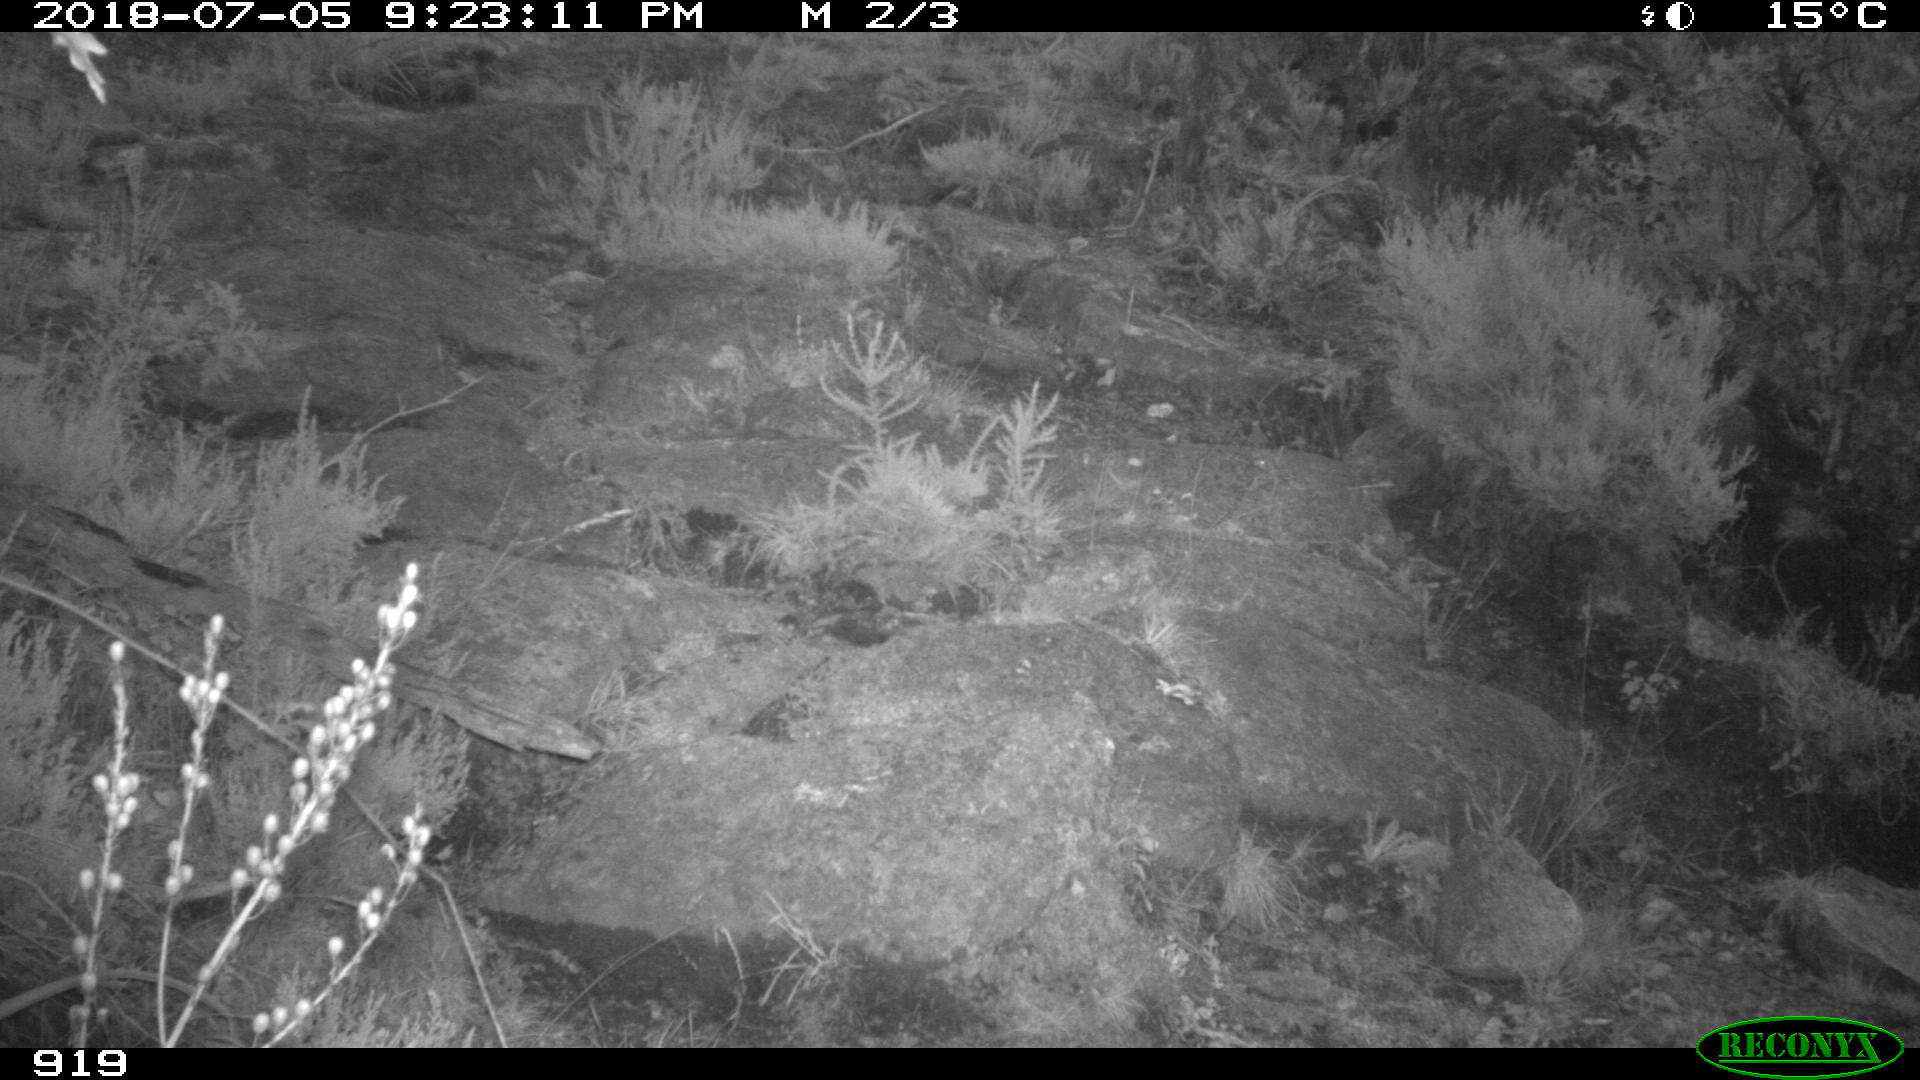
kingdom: Animalia
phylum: Chordata
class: Mammalia
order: Artiodactyla
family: Bovidae
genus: Bos
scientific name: Bos taurus
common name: Domesticated cattle
